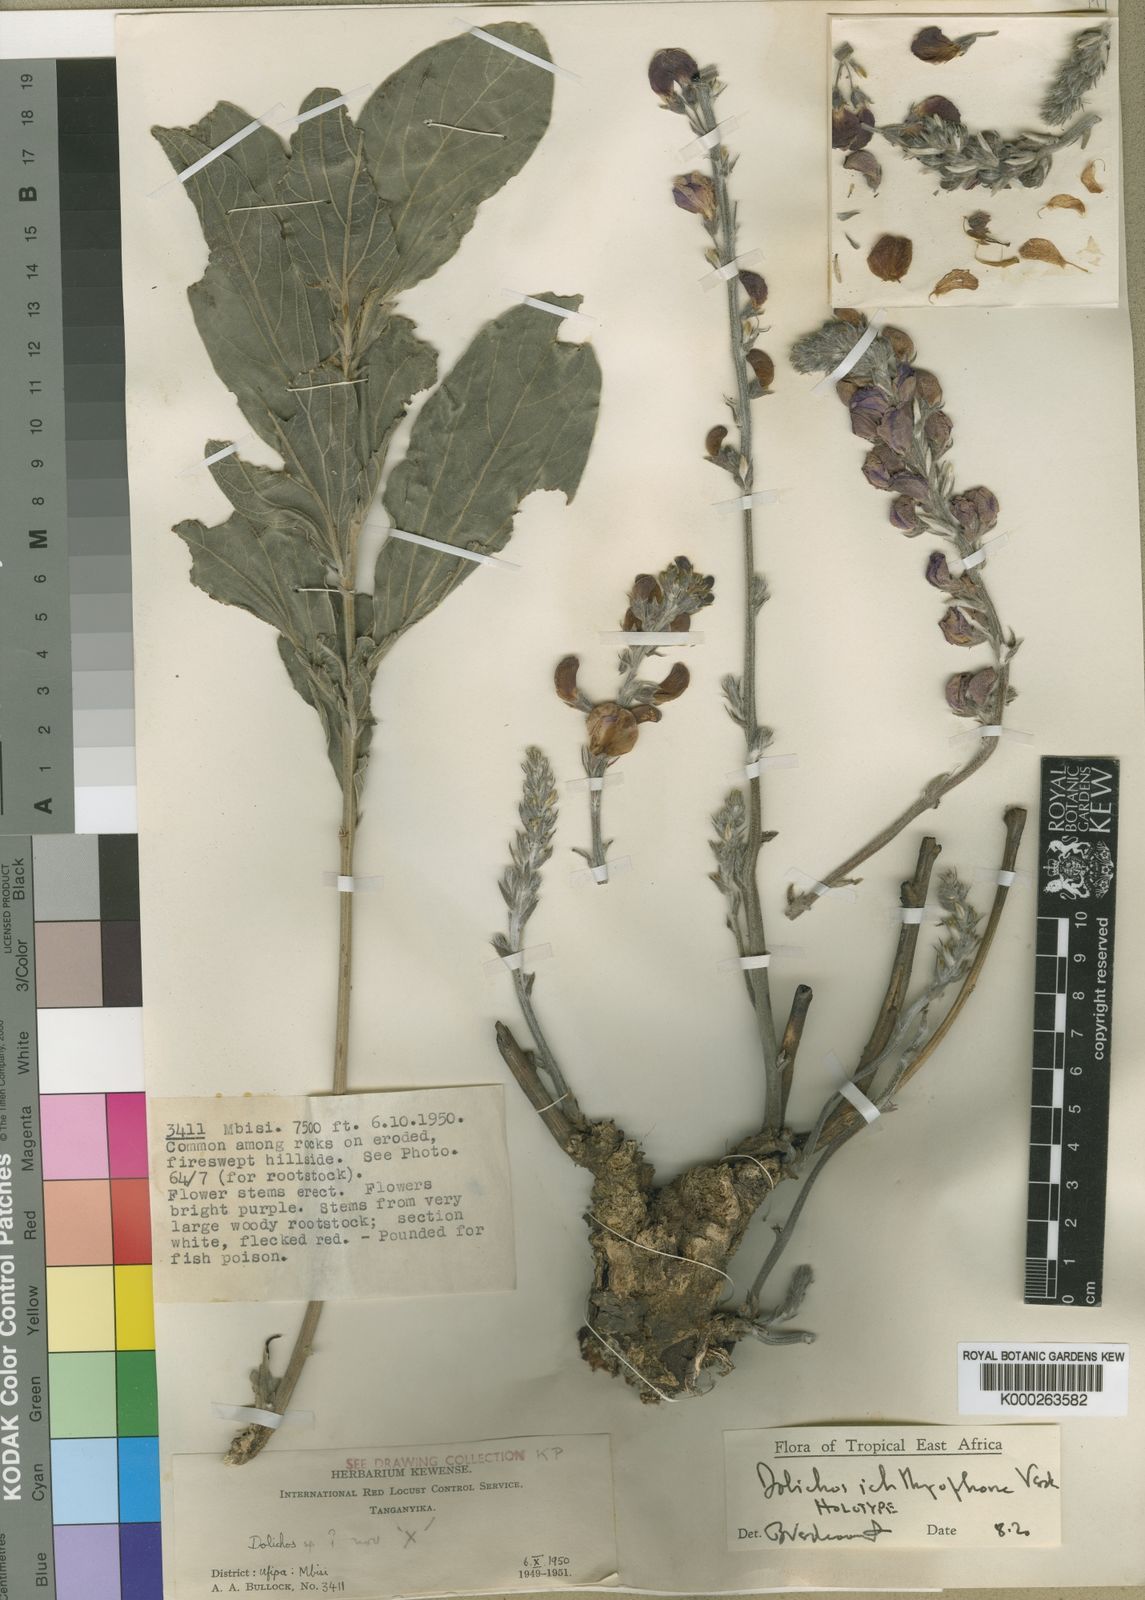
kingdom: Plantae
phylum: Tracheophyta
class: Magnoliopsida
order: Fabales
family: Fabaceae
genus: Dolichos
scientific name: Dolichos ichthyophone
